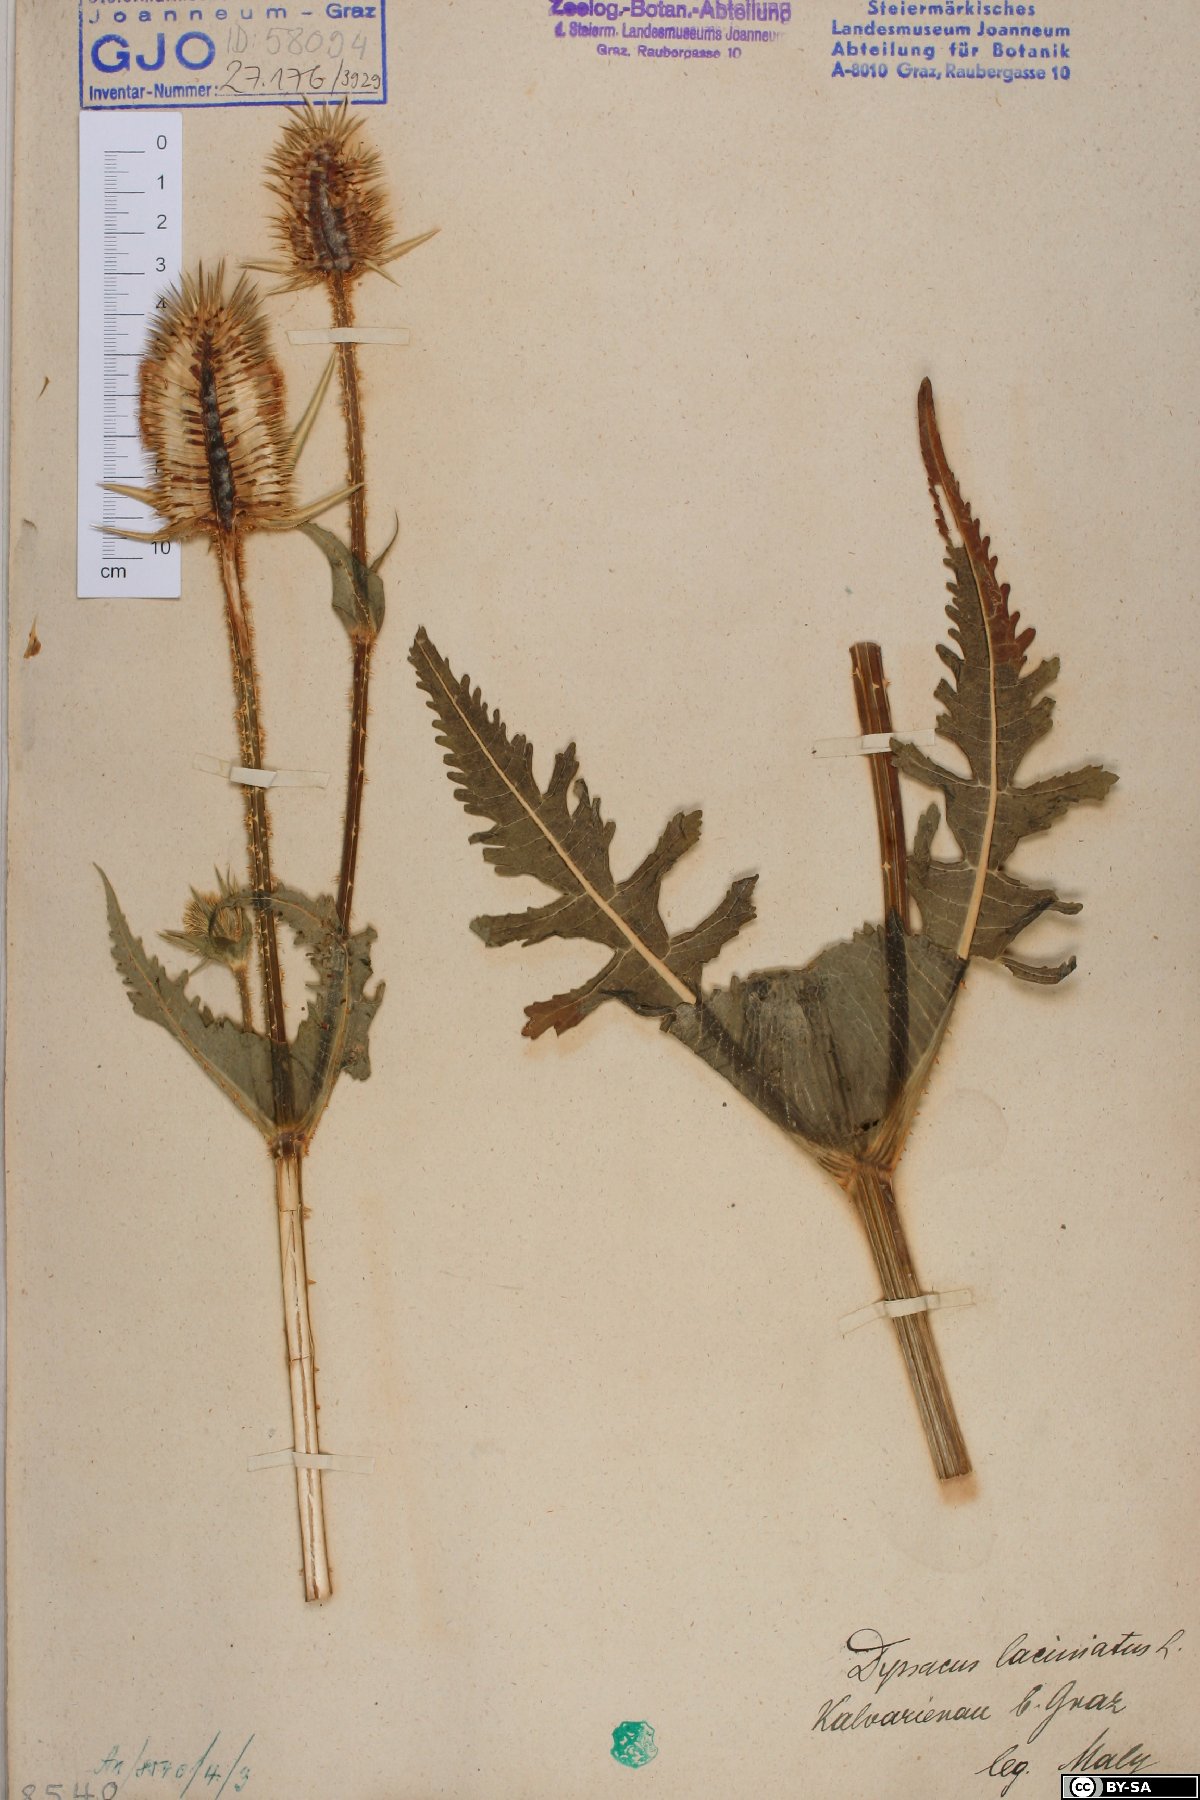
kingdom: Plantae
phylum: Tracheophyta
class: Magnoliopsida
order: Dipsacales
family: Caprifoliaceae
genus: Dipsacus
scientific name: Dipsacus laciniatus
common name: Cut-leaved teasel
